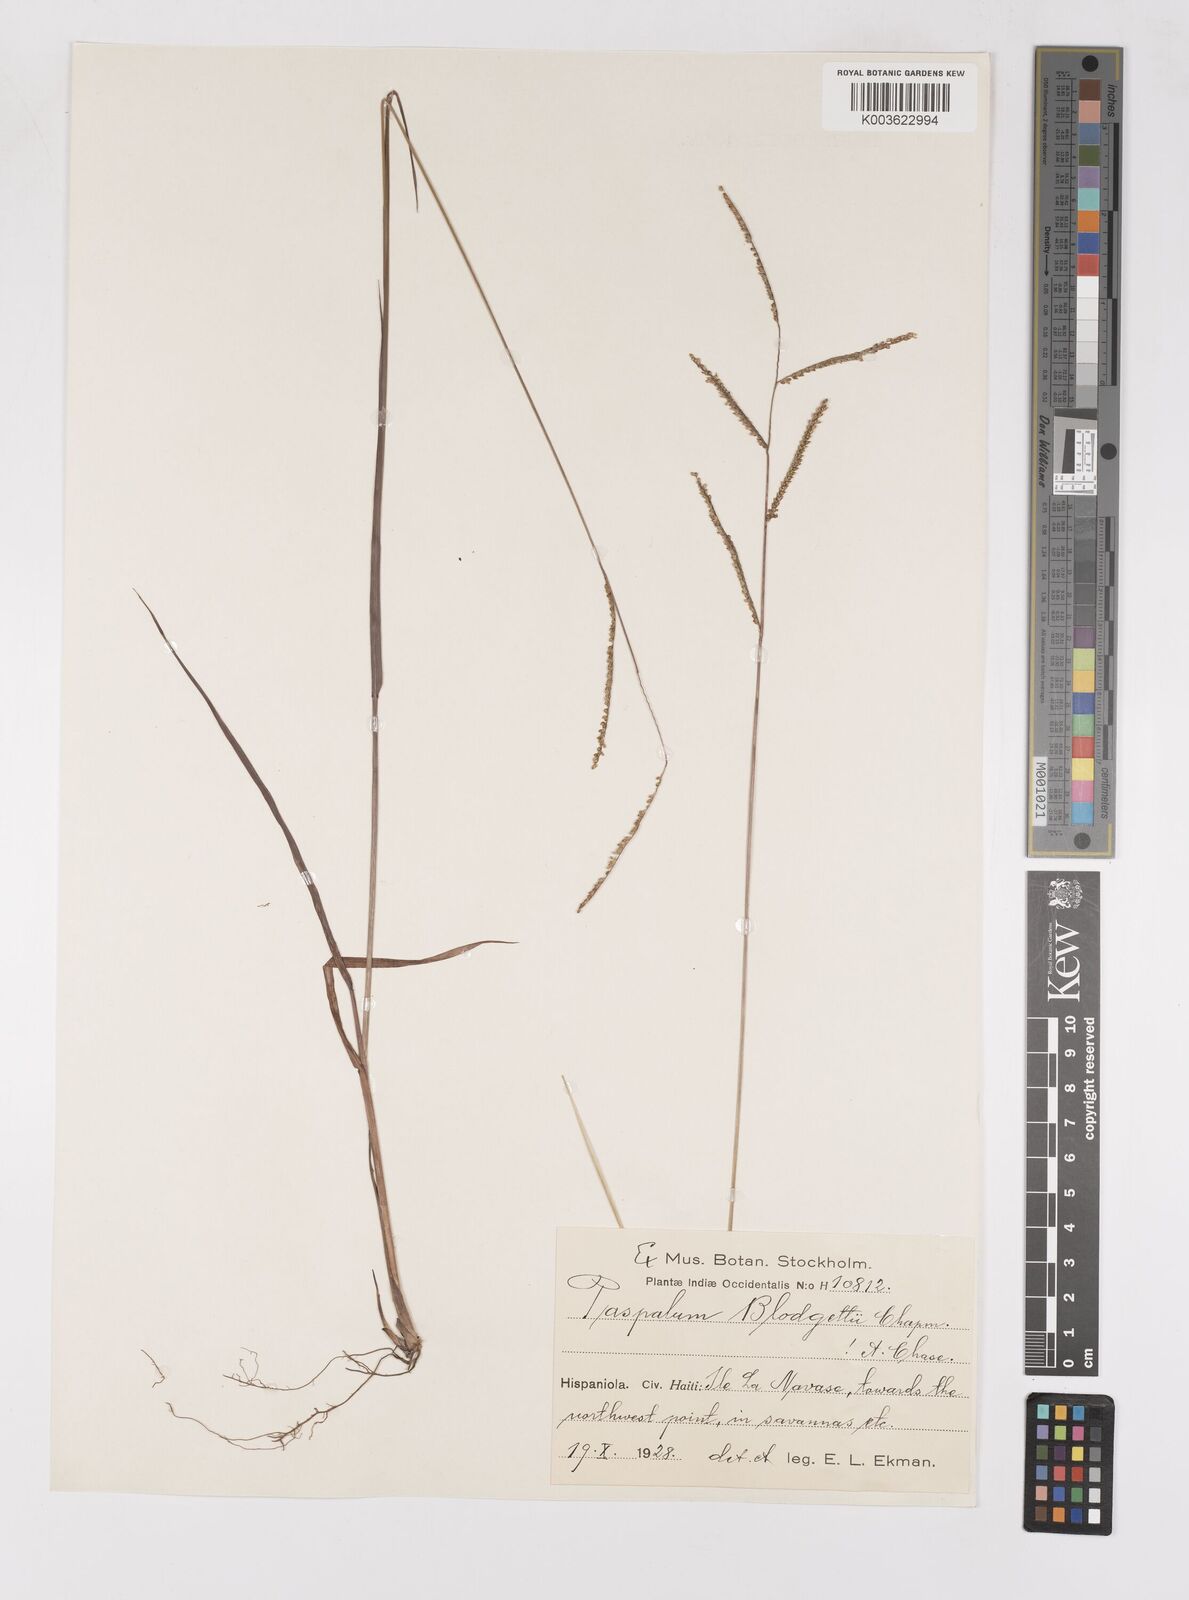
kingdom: Plantae
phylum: Tracheophyta
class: Liliopsida
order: Poales
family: Poaceae
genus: Paspalum
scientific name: Paspalum blodgettii
